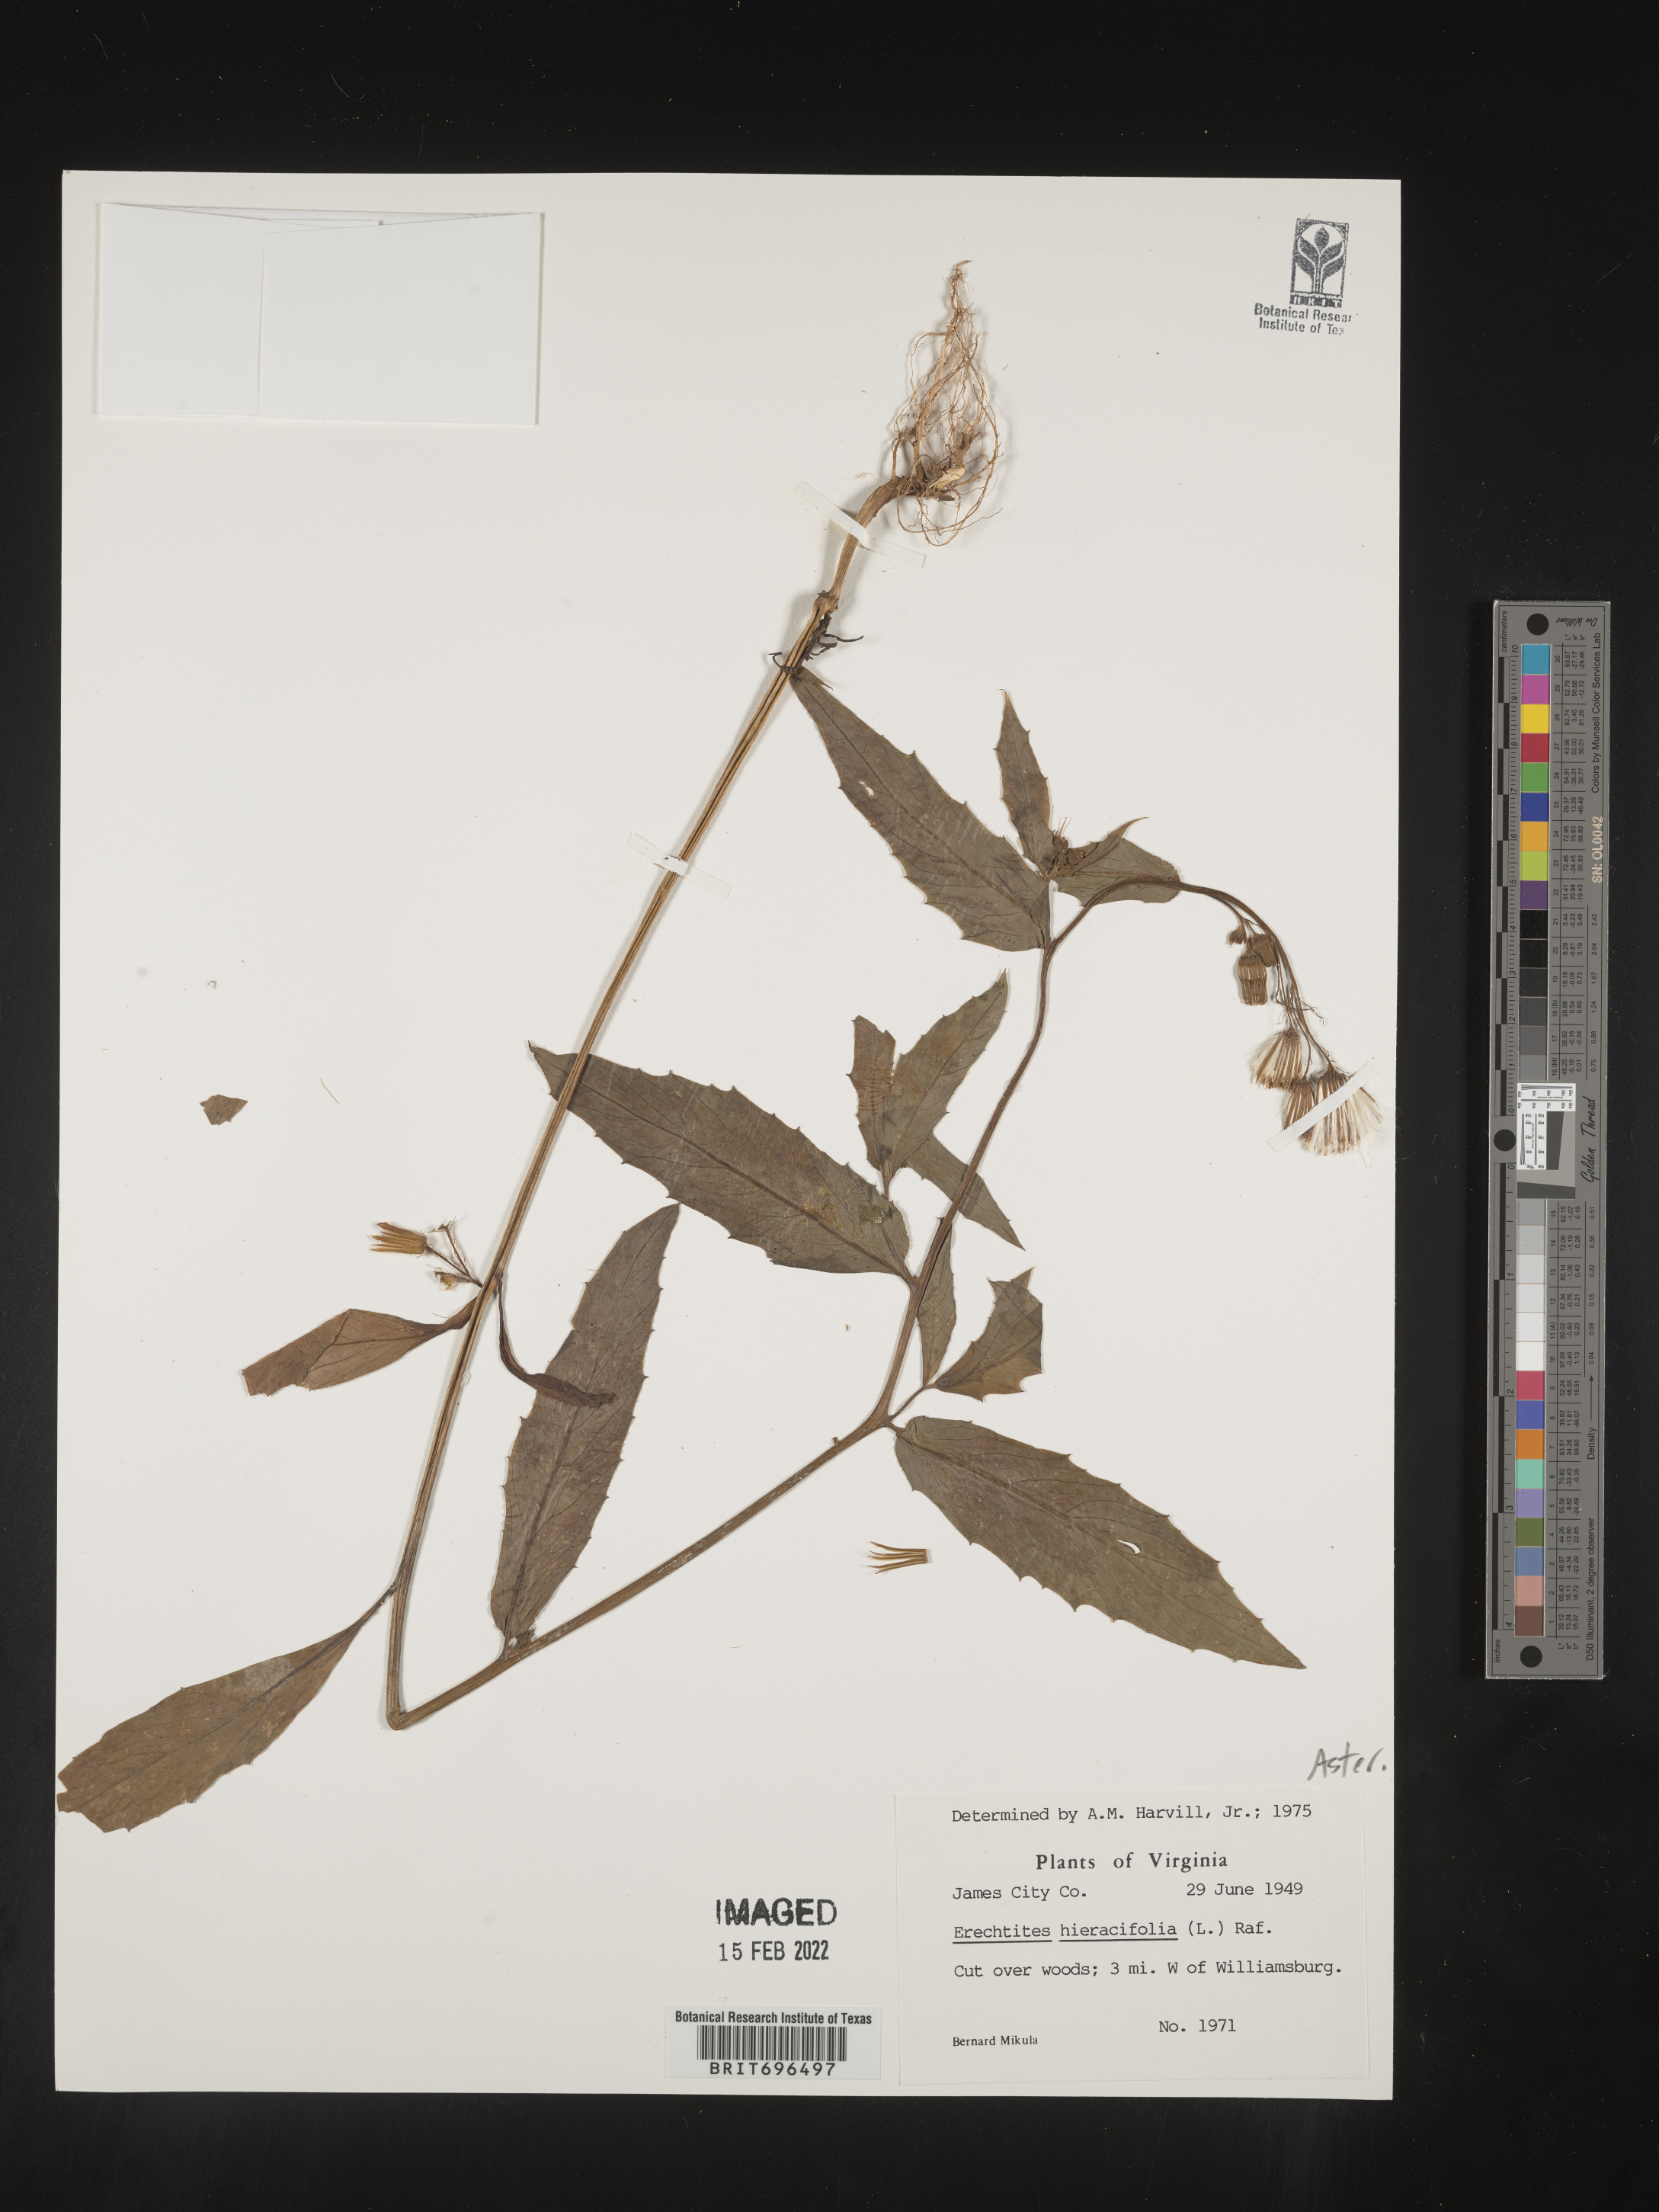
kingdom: Plantae
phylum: Tracheophyta
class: Magnoliopsida
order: Asterales
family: Asteraceae
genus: Erechtites
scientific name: Erechtites hieraciifolius
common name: American burnweed
